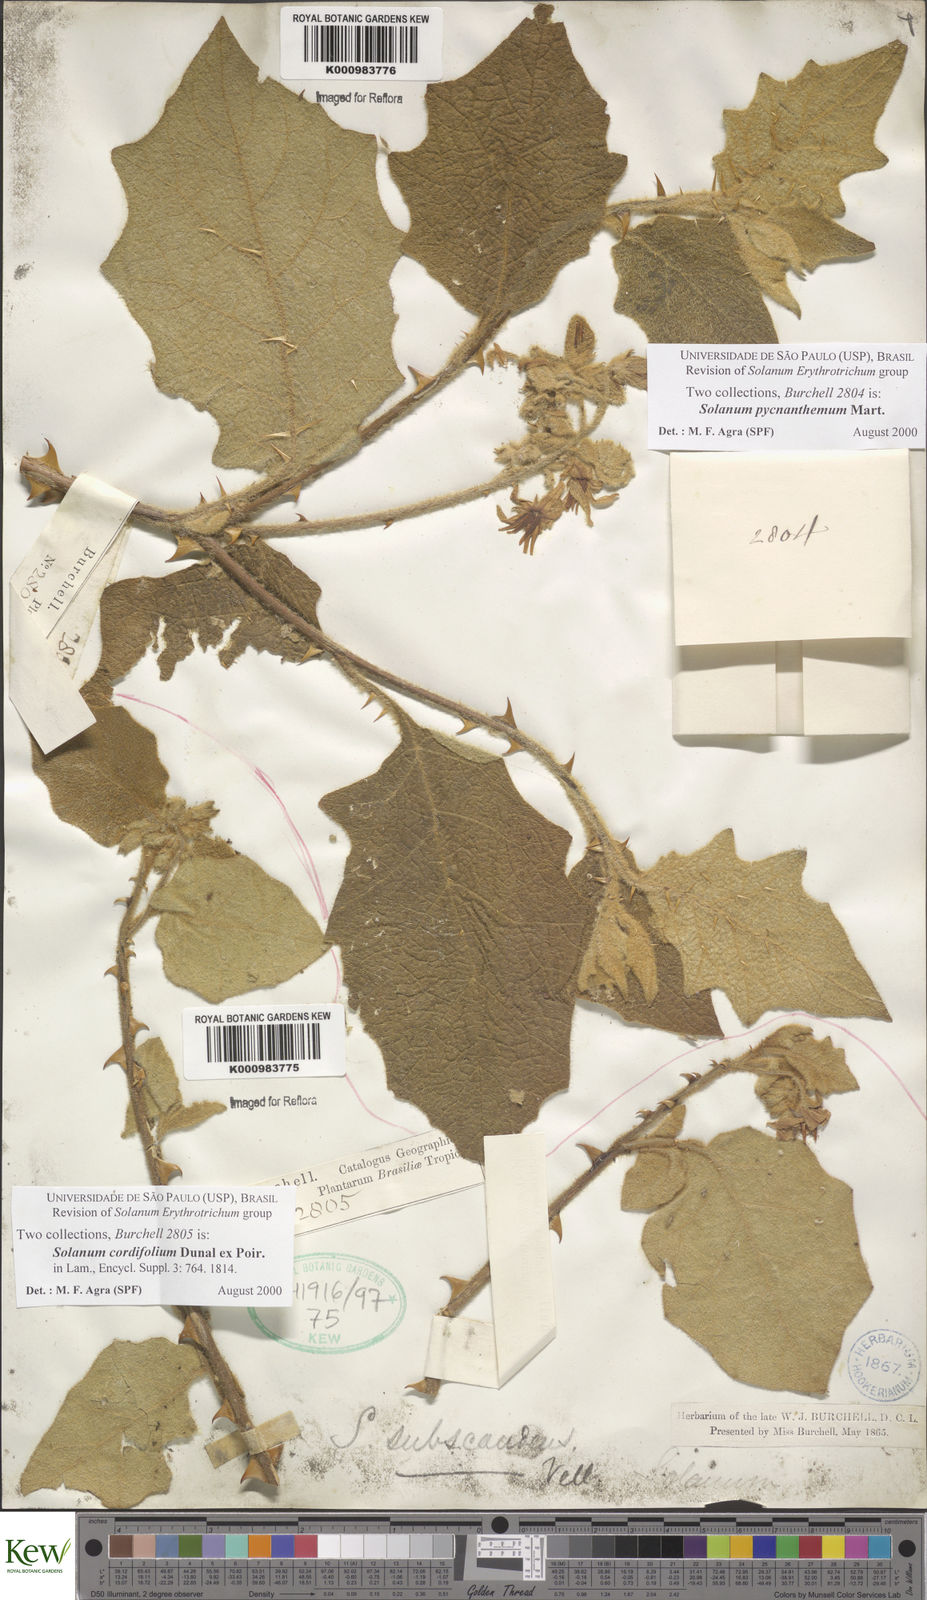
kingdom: Plantae
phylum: Tracheophyta
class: Magnoliopsida
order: Solanales
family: Solanaceae
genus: Solanum
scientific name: Solanum cordifolium
